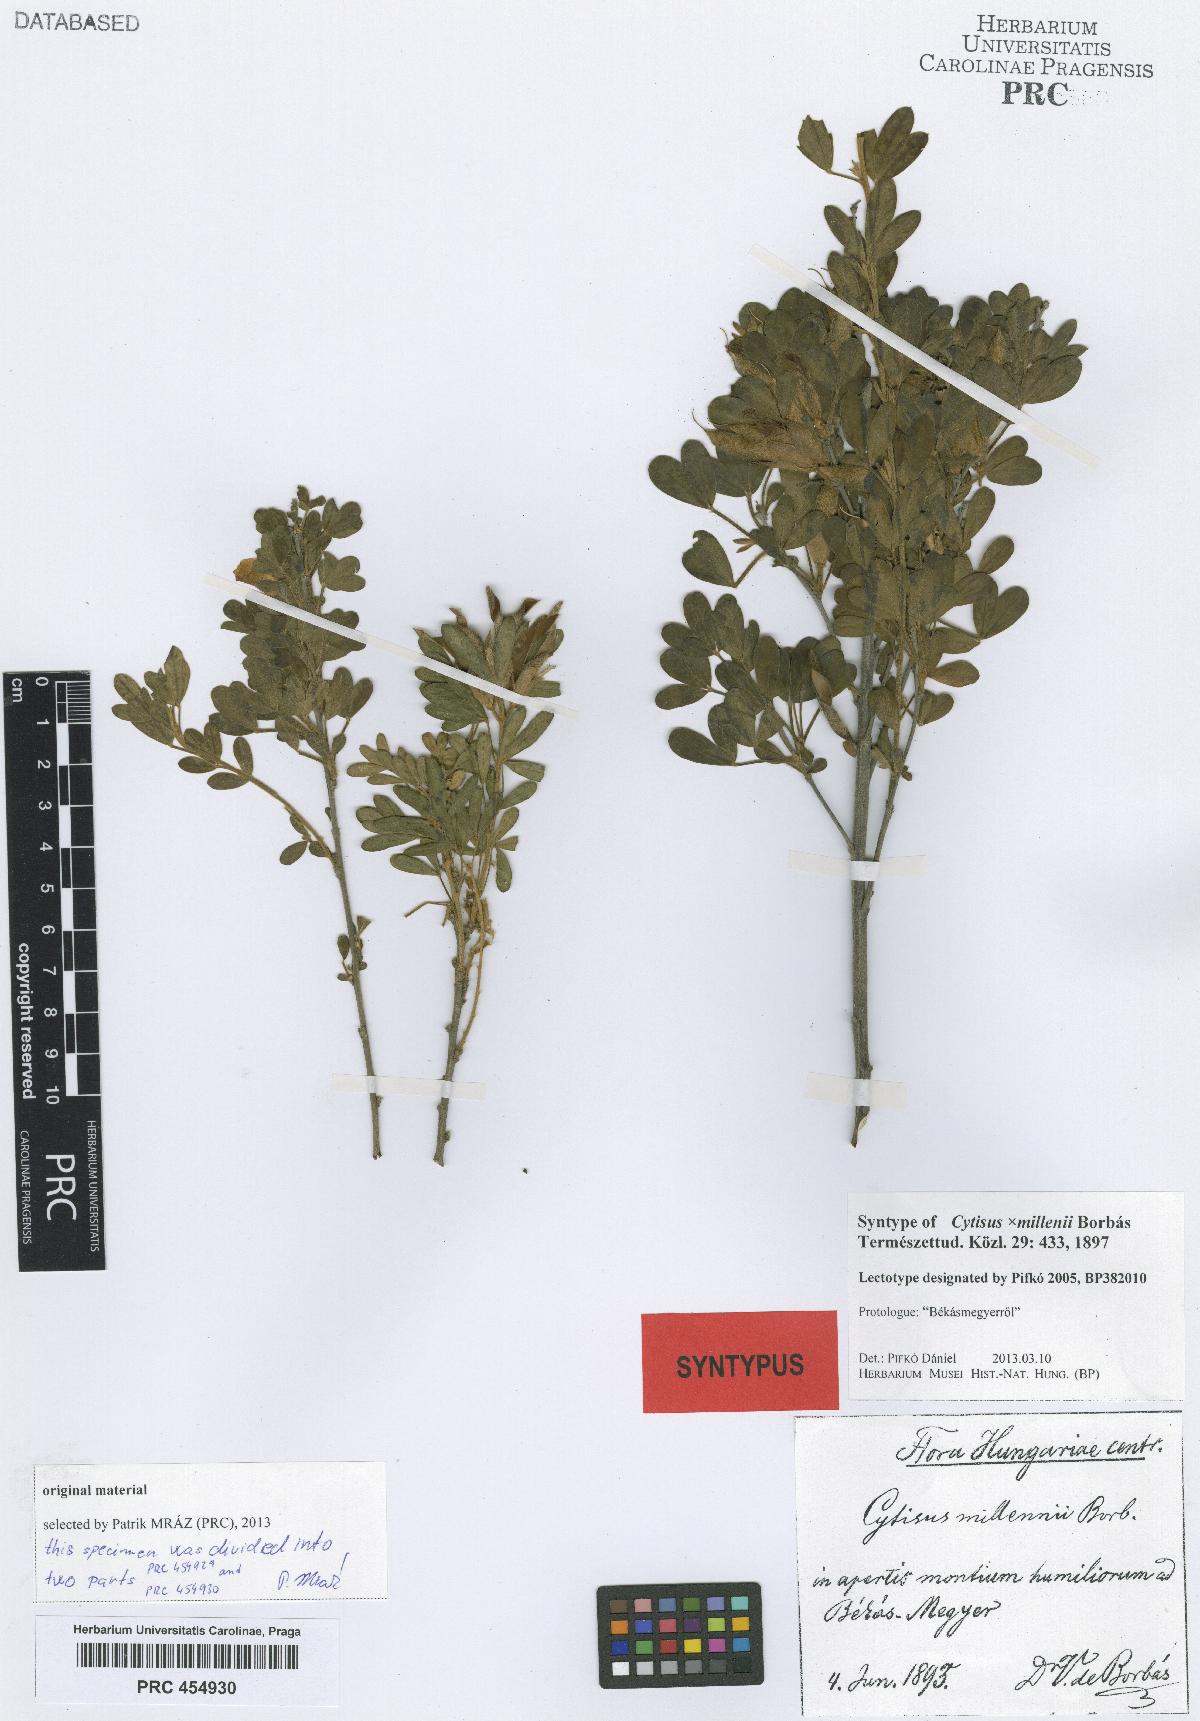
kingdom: Plantae
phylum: Tracheophyta
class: Magnoliopsida
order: Fabales
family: Fabaceae
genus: Cytisus
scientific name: Cytisus millenii
